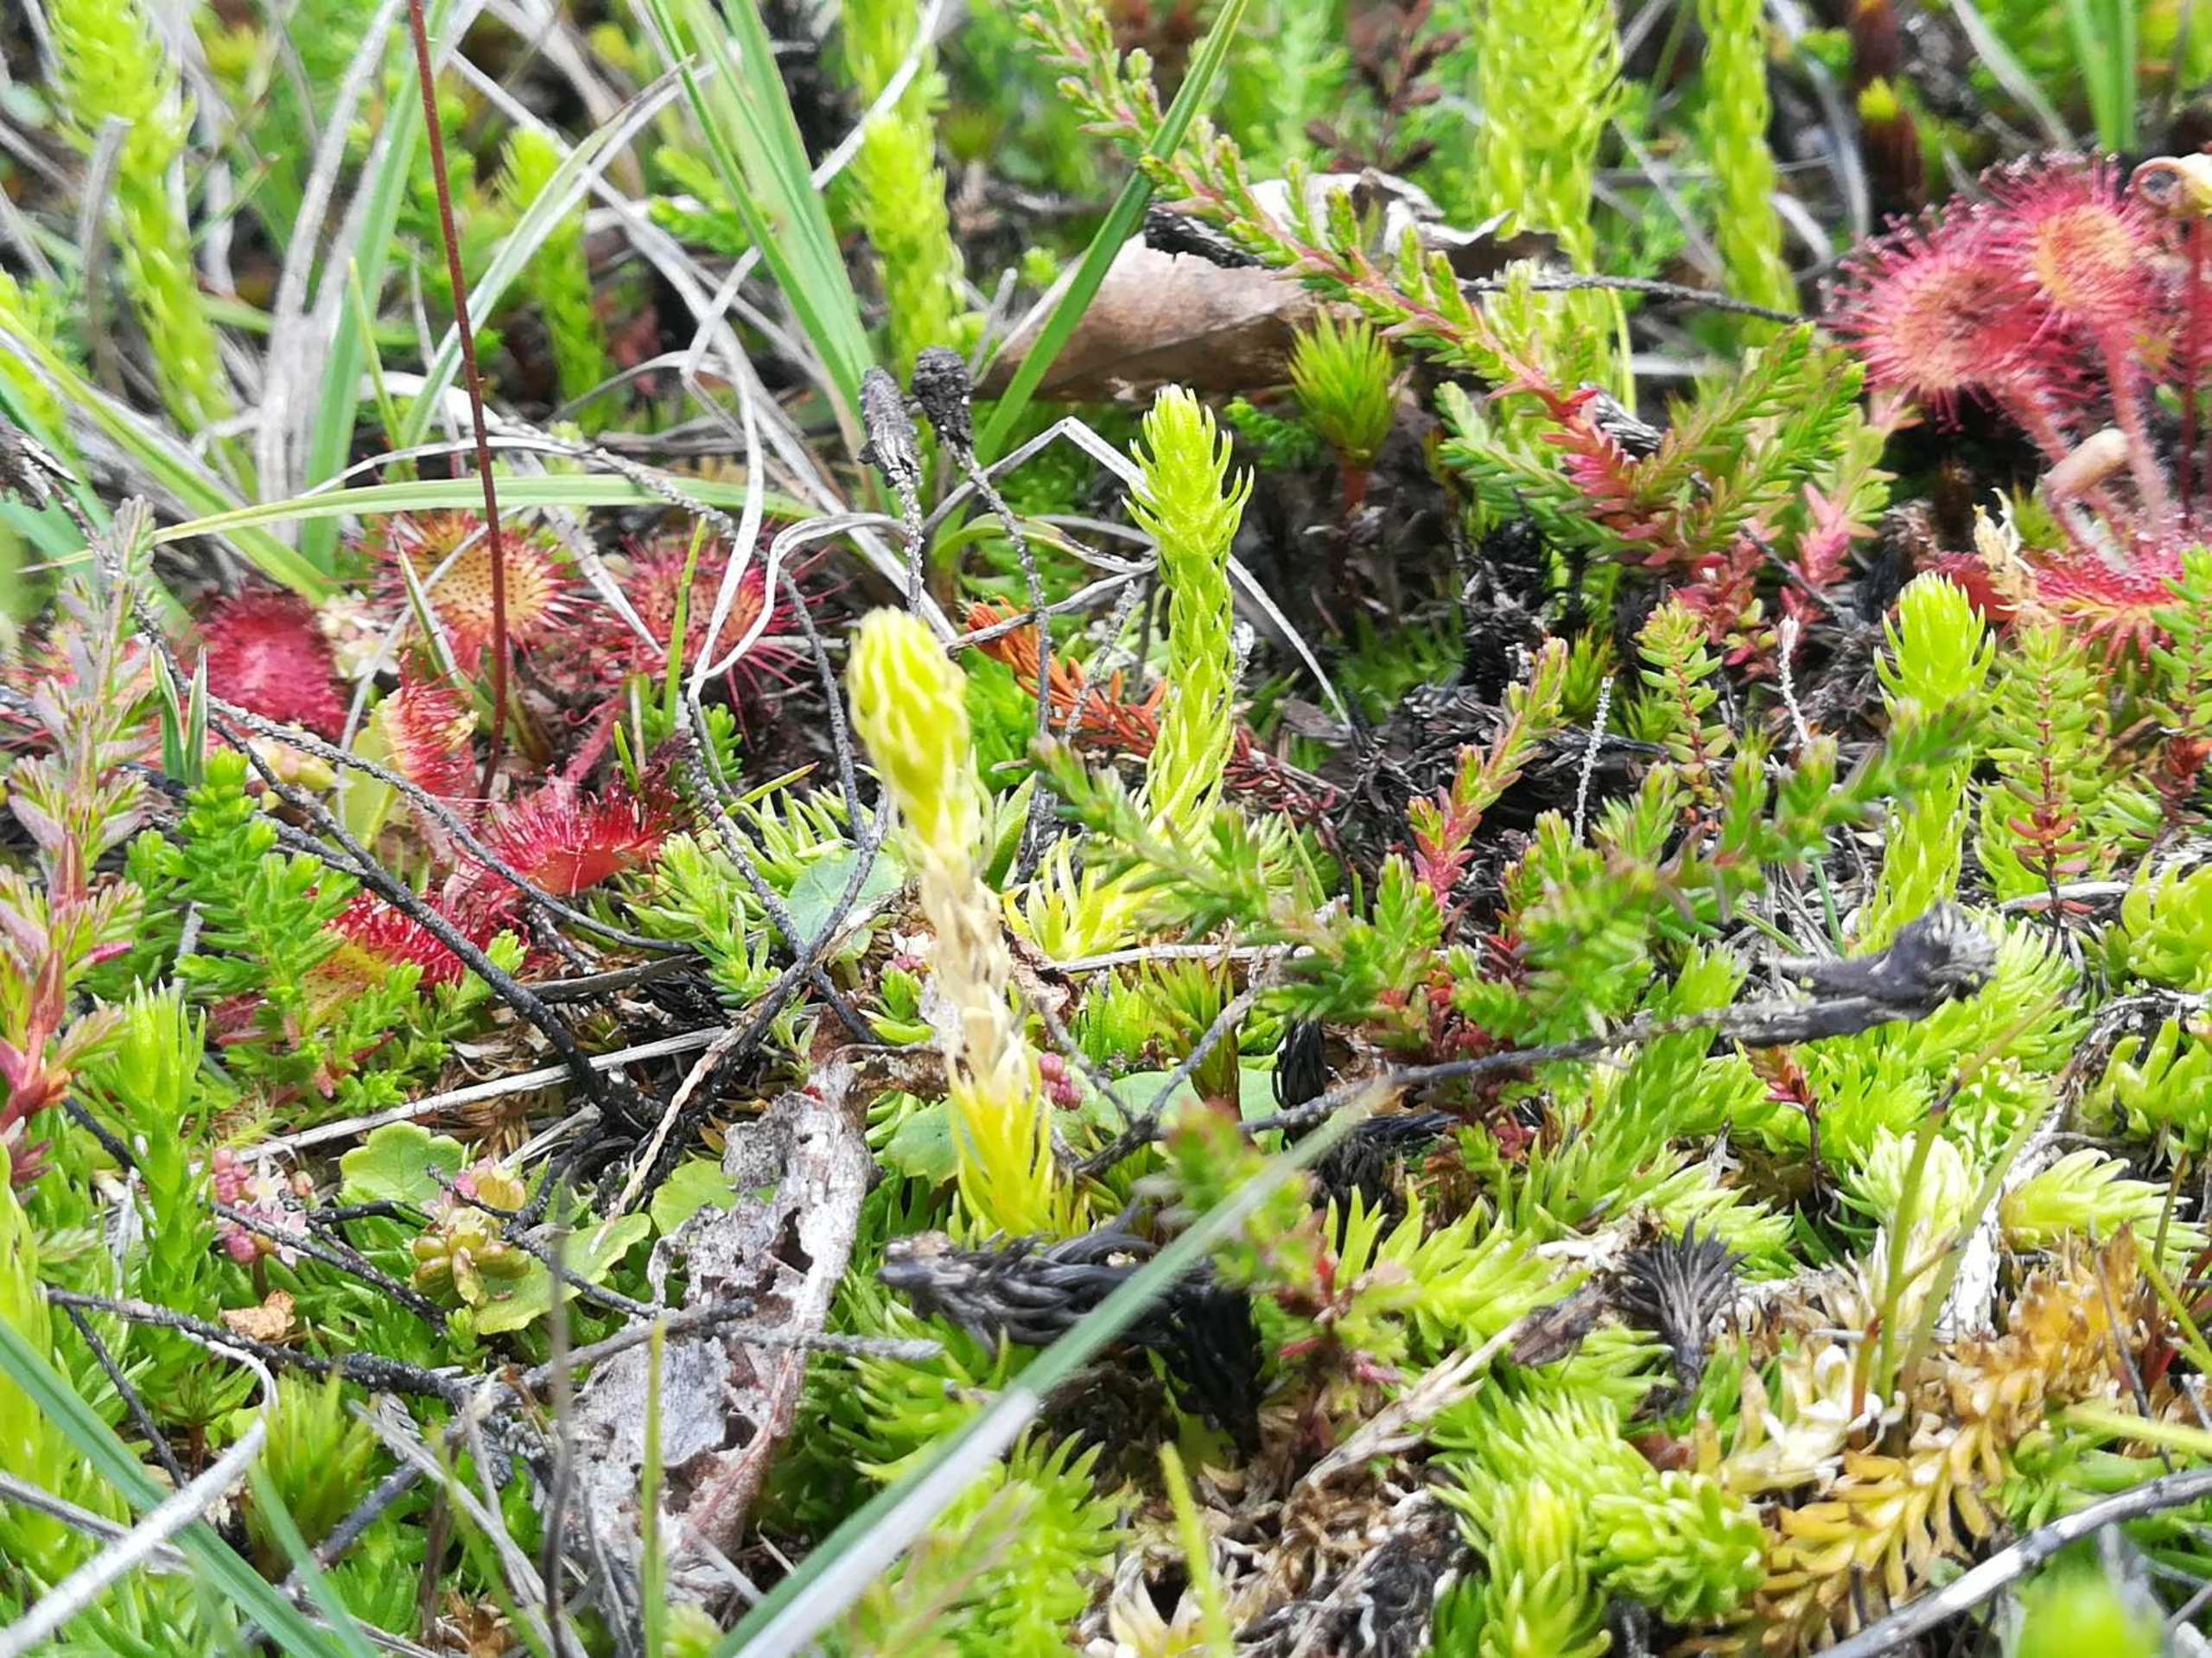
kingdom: Plantae
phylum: Tracheophyta
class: Lycopodiopsida
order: Lycopodiales
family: Lycopodiaceae
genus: Lycopodiella
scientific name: Lycopodiella inundata
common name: Liden ulvefod
